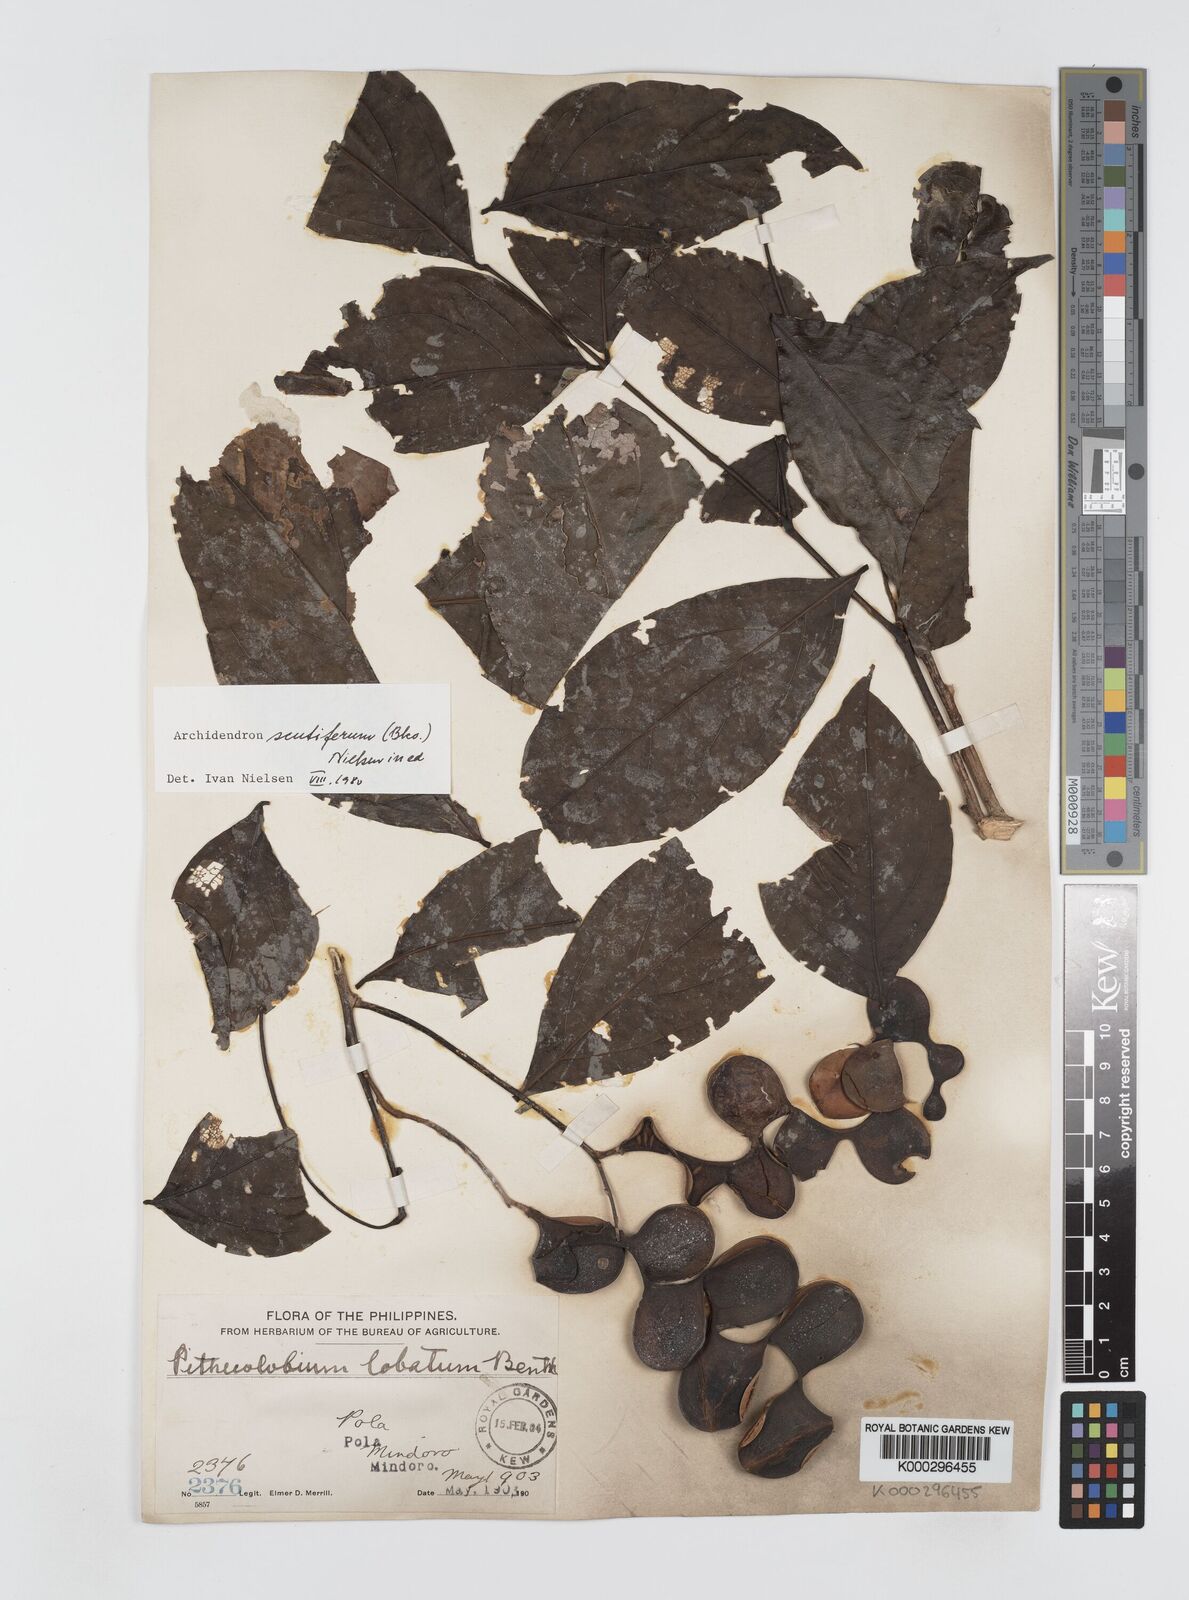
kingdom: Plantae
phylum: Tracheophyta
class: Magnoliopsida
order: Fabales
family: Fabaceae
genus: Archidendron
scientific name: Archidendron scutiferum
